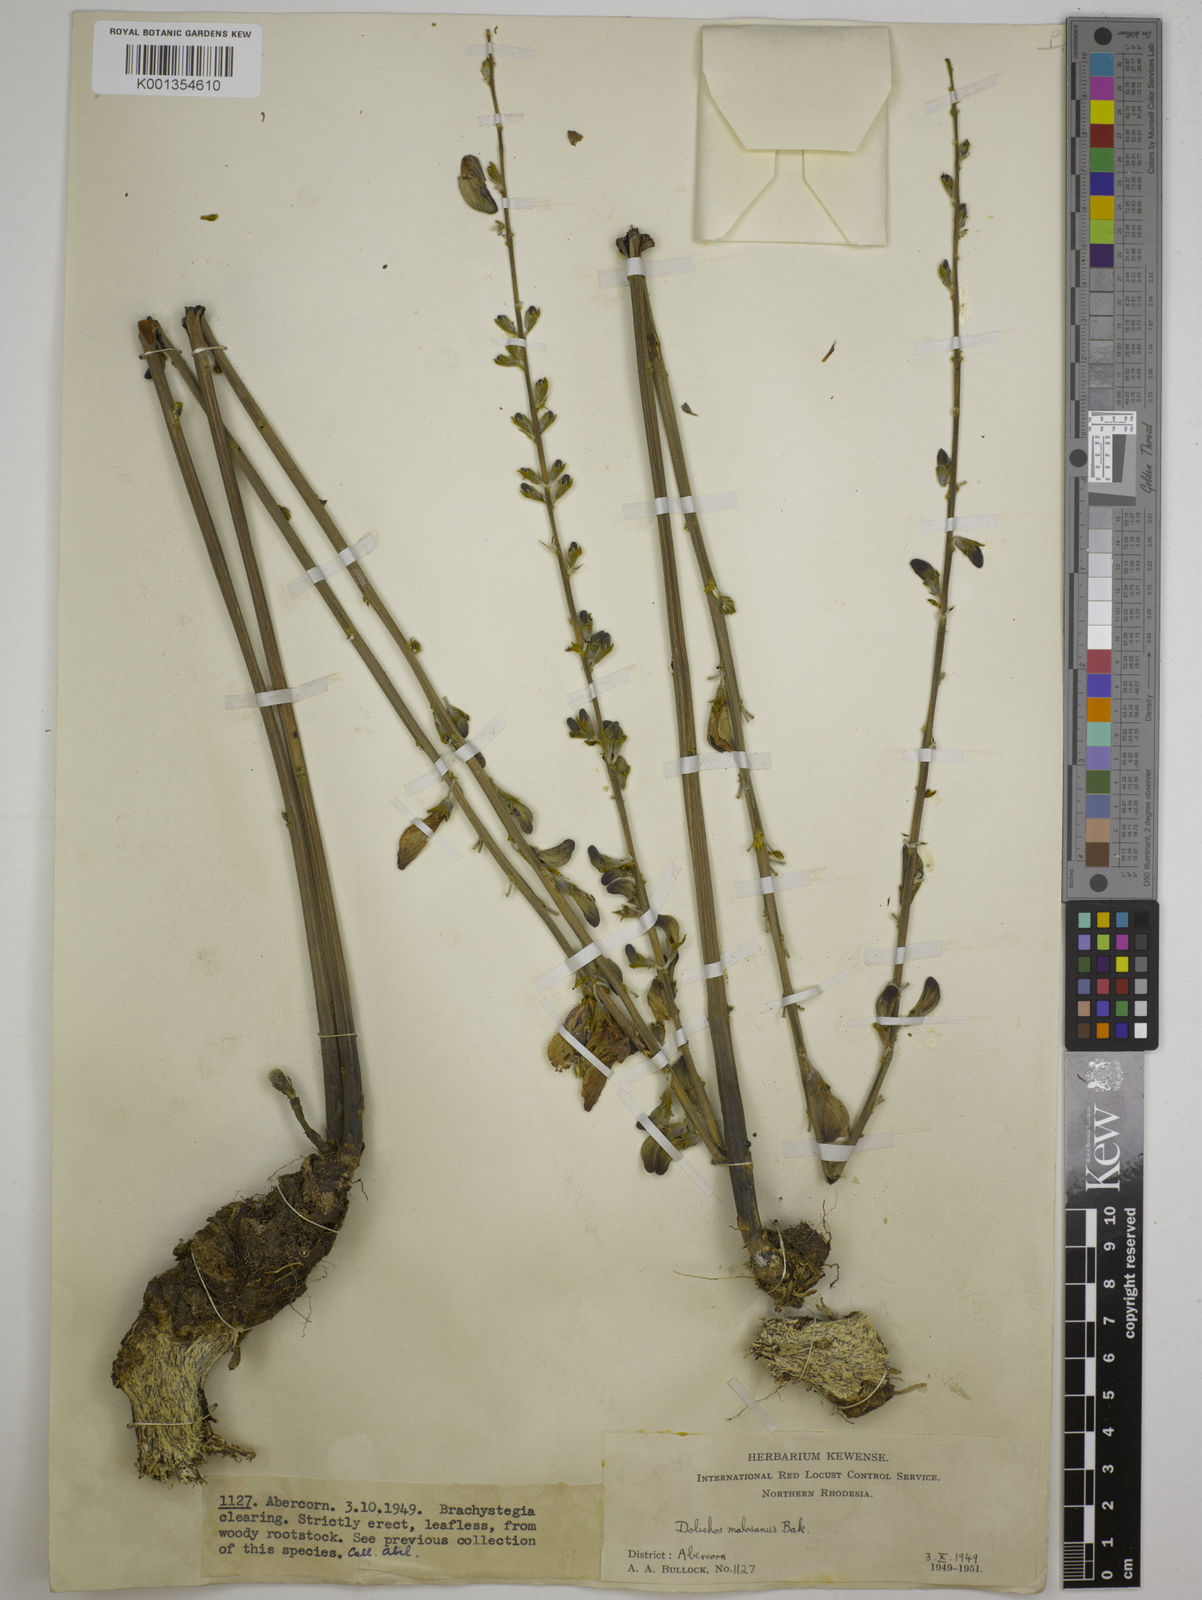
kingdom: Plantae
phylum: Tracheophyta
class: Magnoliopsida
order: Fabales
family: Fabaceae
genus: Dolichos
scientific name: Dolichos kilimandscharicus
